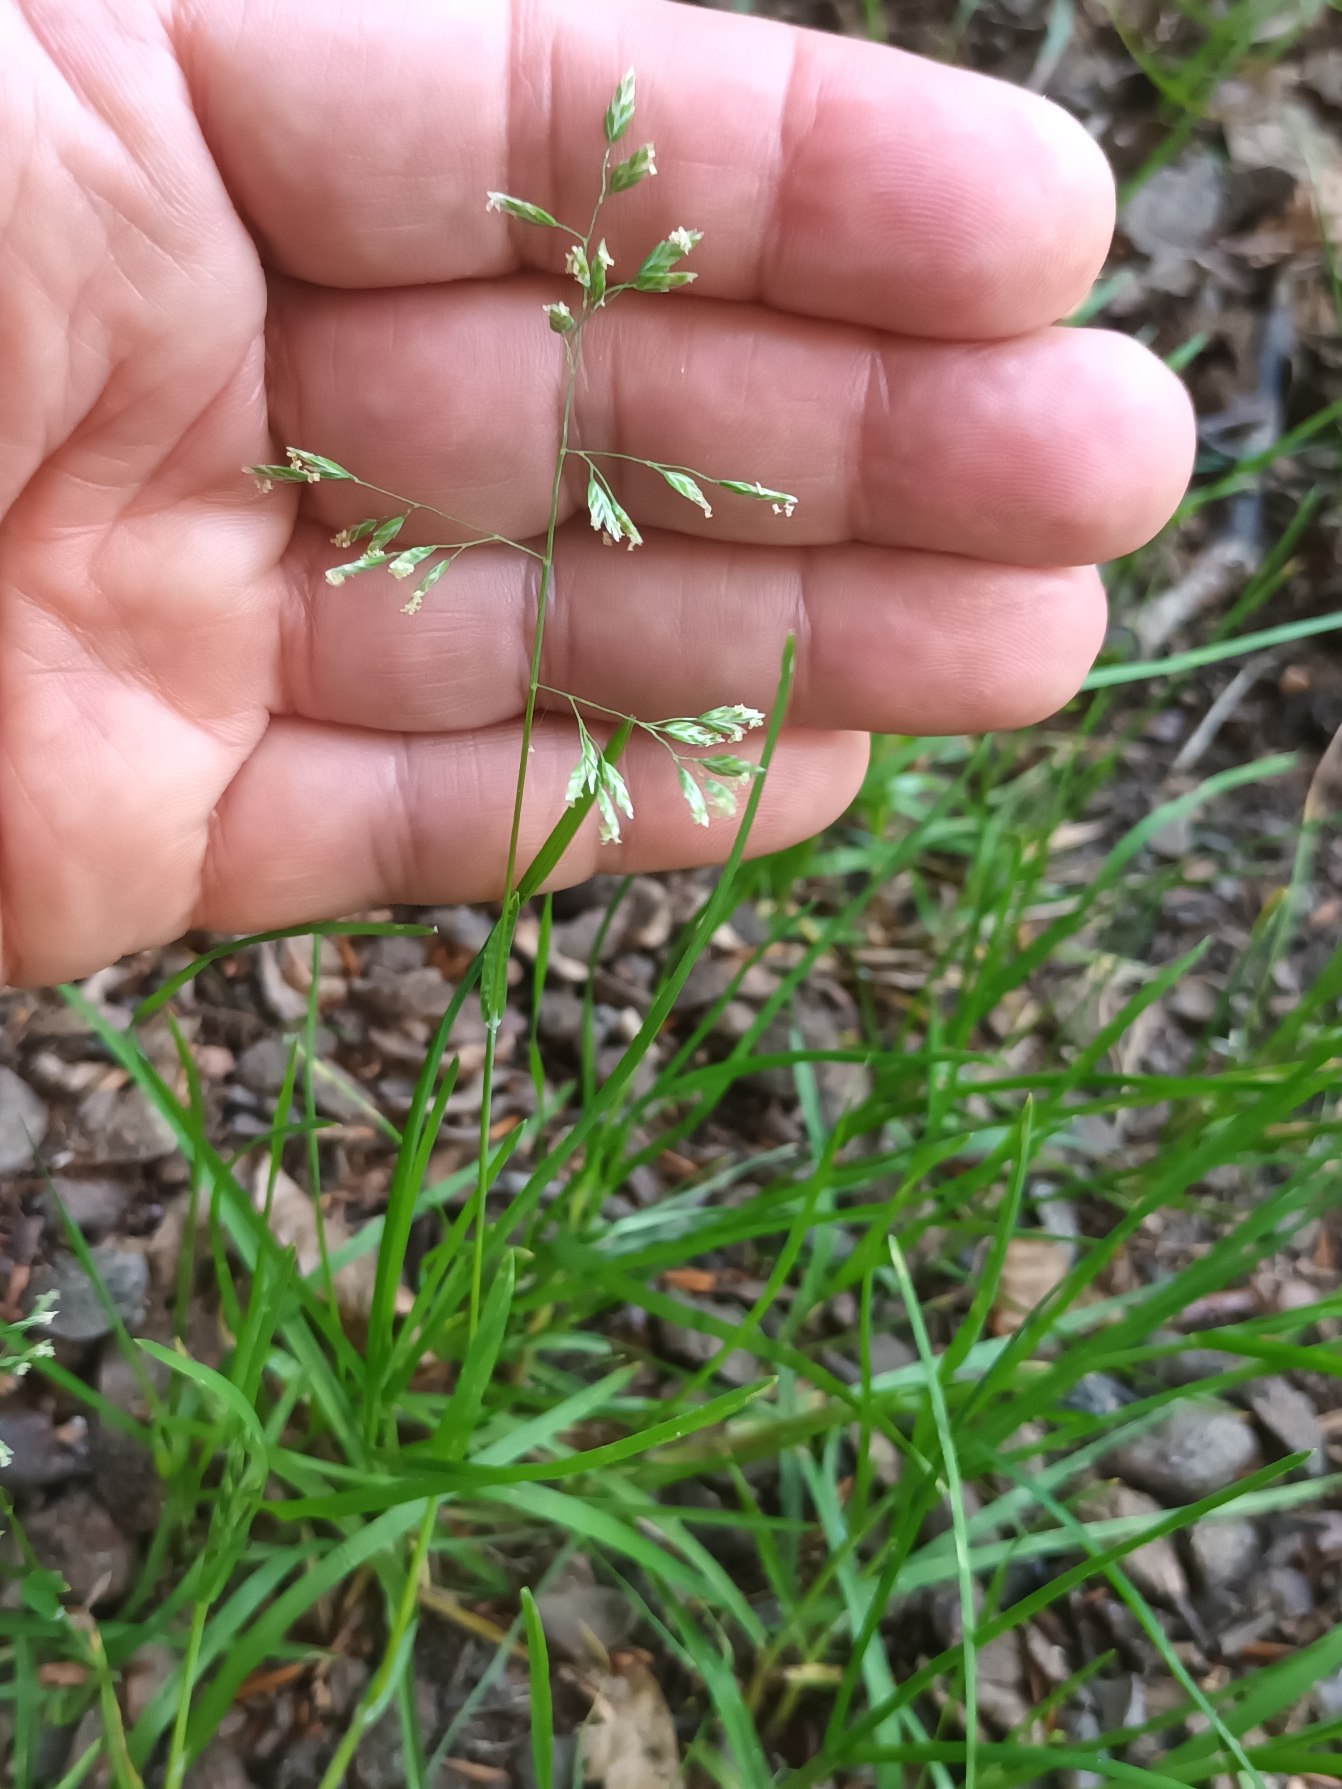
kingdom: Plantae
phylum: Tracheophyta
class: Liliopsida
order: Poales
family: Poaceae
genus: Poa
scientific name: Poa annua
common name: Enårig rapgræs
